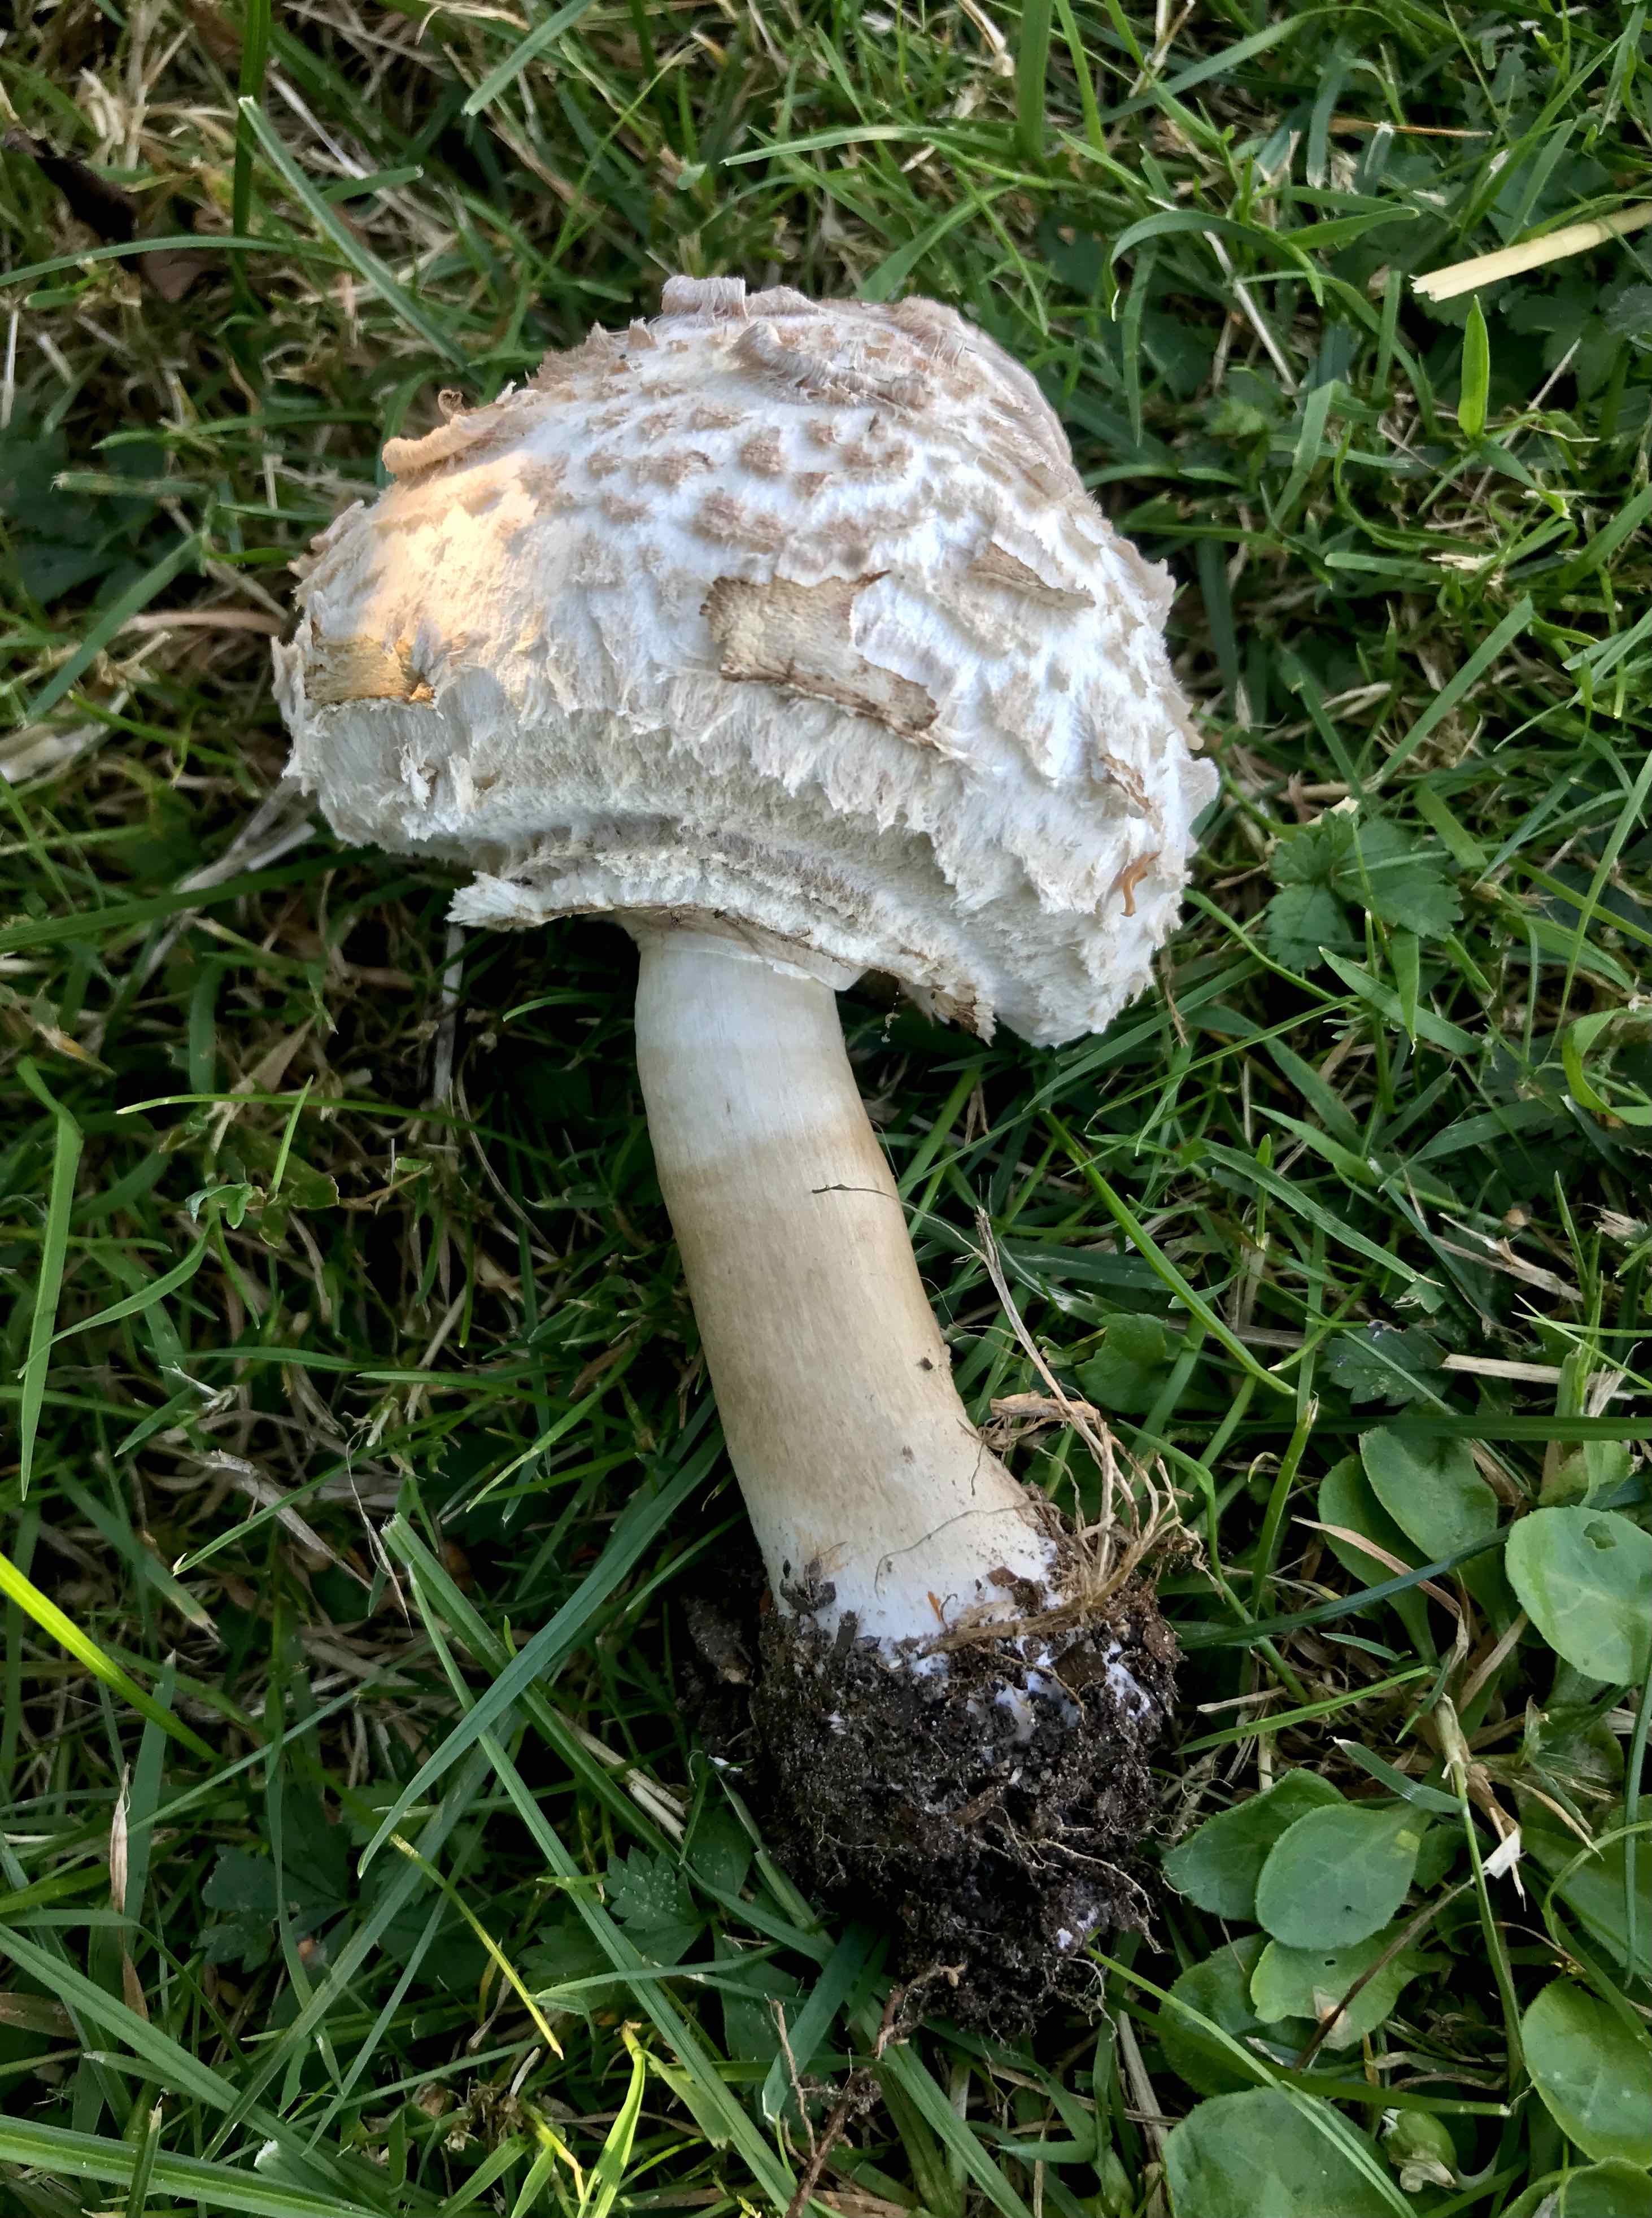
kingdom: Fungi
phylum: Basidiomycota
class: Agaricomycetes
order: Agaricales
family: Agaricaceae
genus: Chlorophyllum
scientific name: Chlorophyllum rhacodes
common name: ægte rabarberhat
